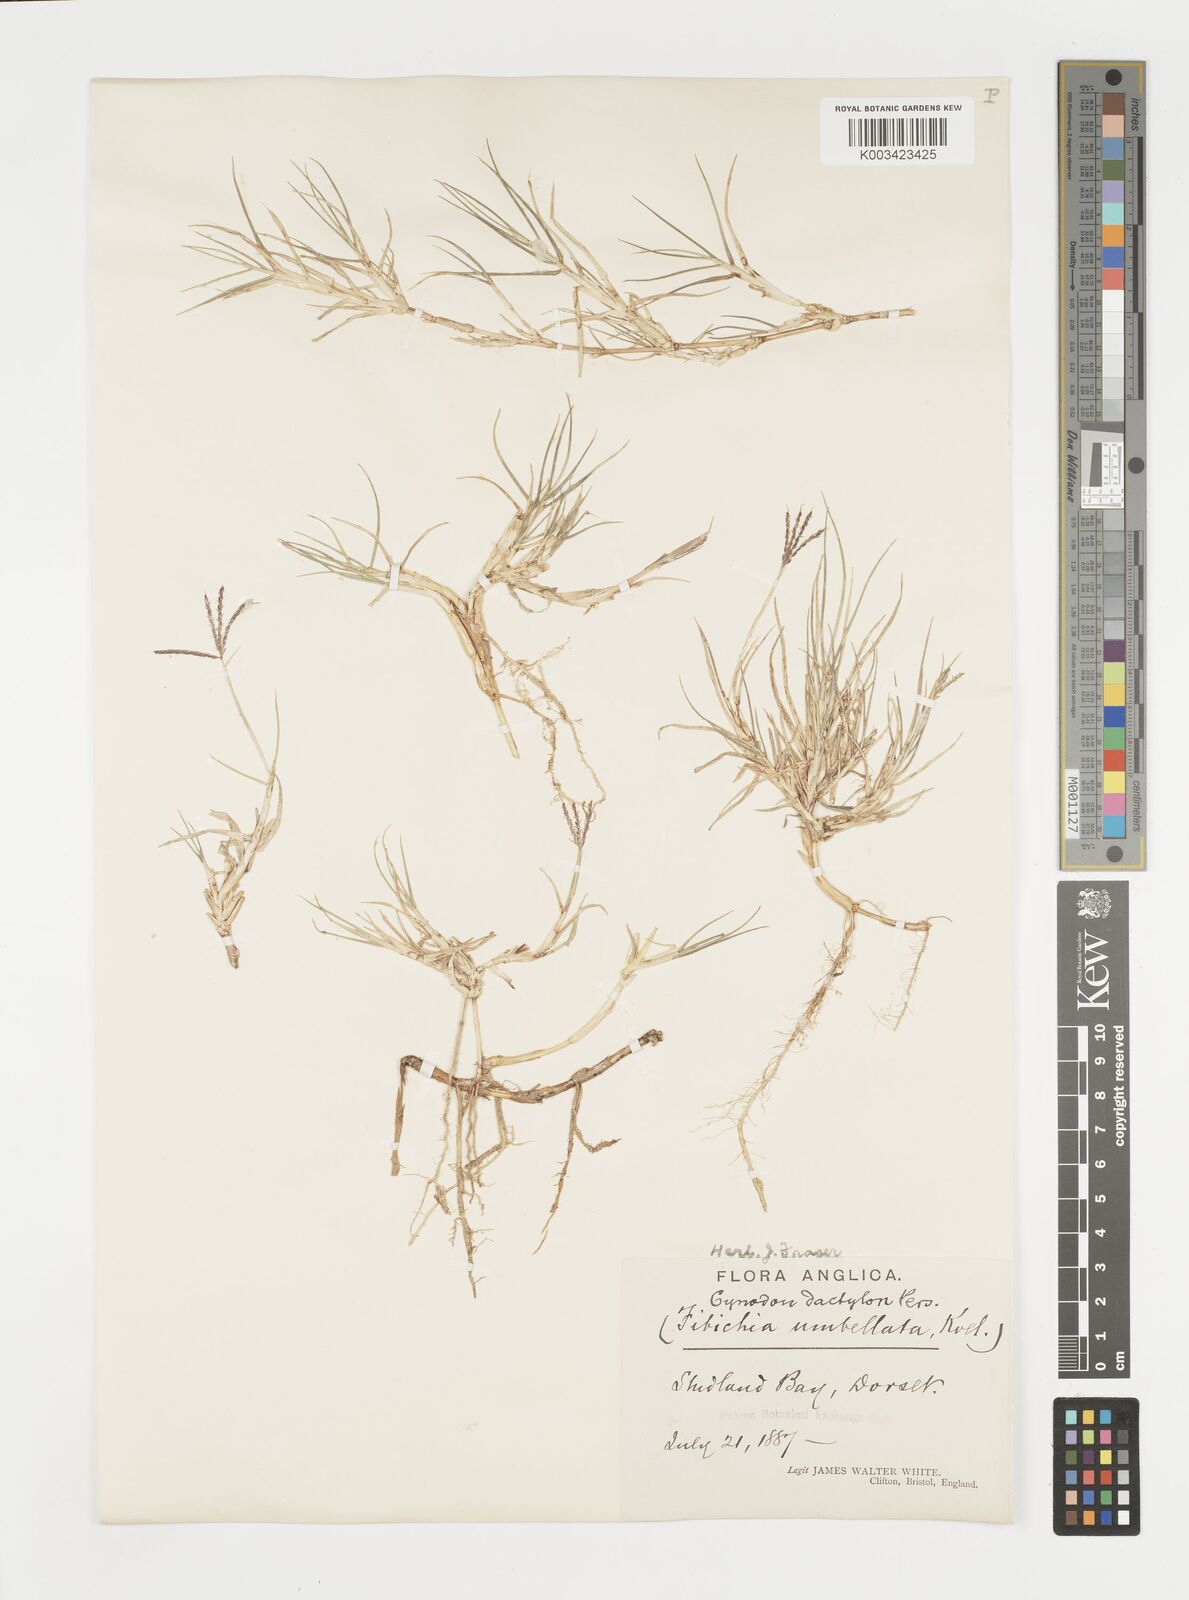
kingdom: Plantae
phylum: Tracheophyta
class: Liliopsida
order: Poales
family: Poaceae
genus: Cynodon
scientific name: Cynodon dactylon
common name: Bermuda grass
